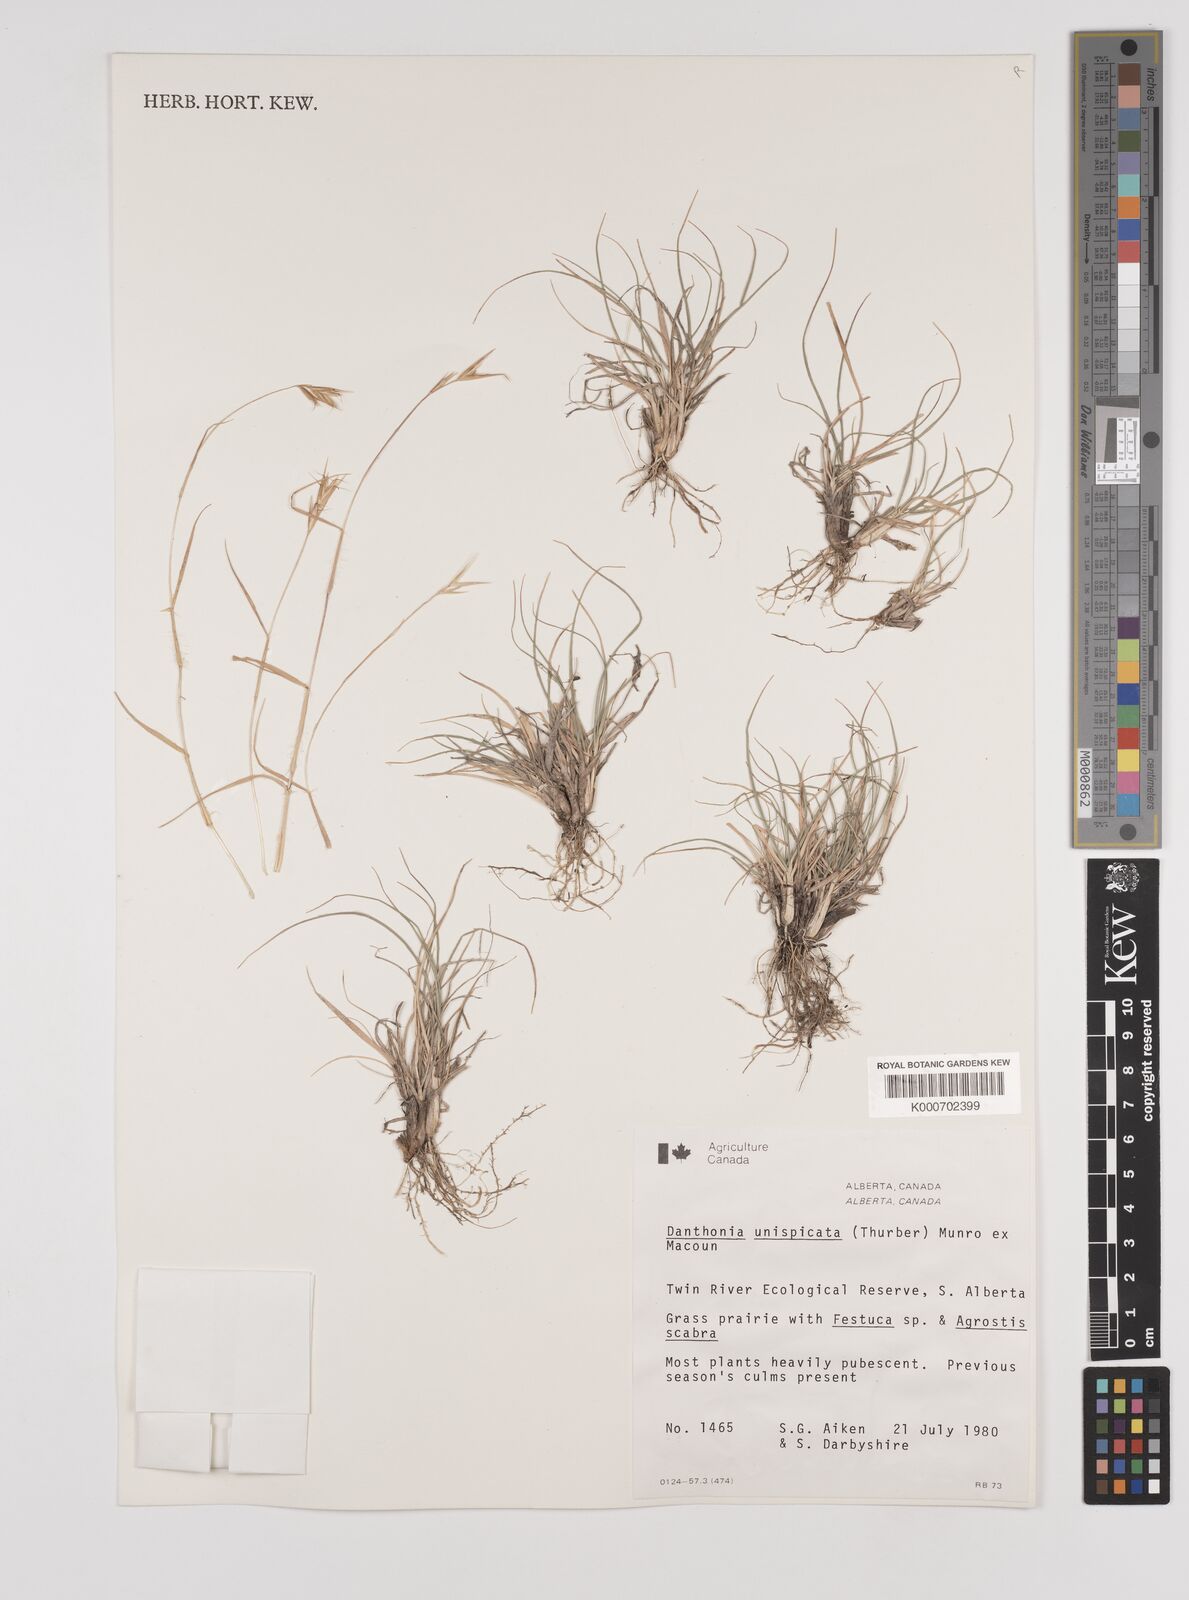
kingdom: Plantae
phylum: Tracheophyta
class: Liliopsida
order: Poales
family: Poaceae
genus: Danthonia
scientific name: Danthonia unispicata
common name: Few-flowered oatgrass
